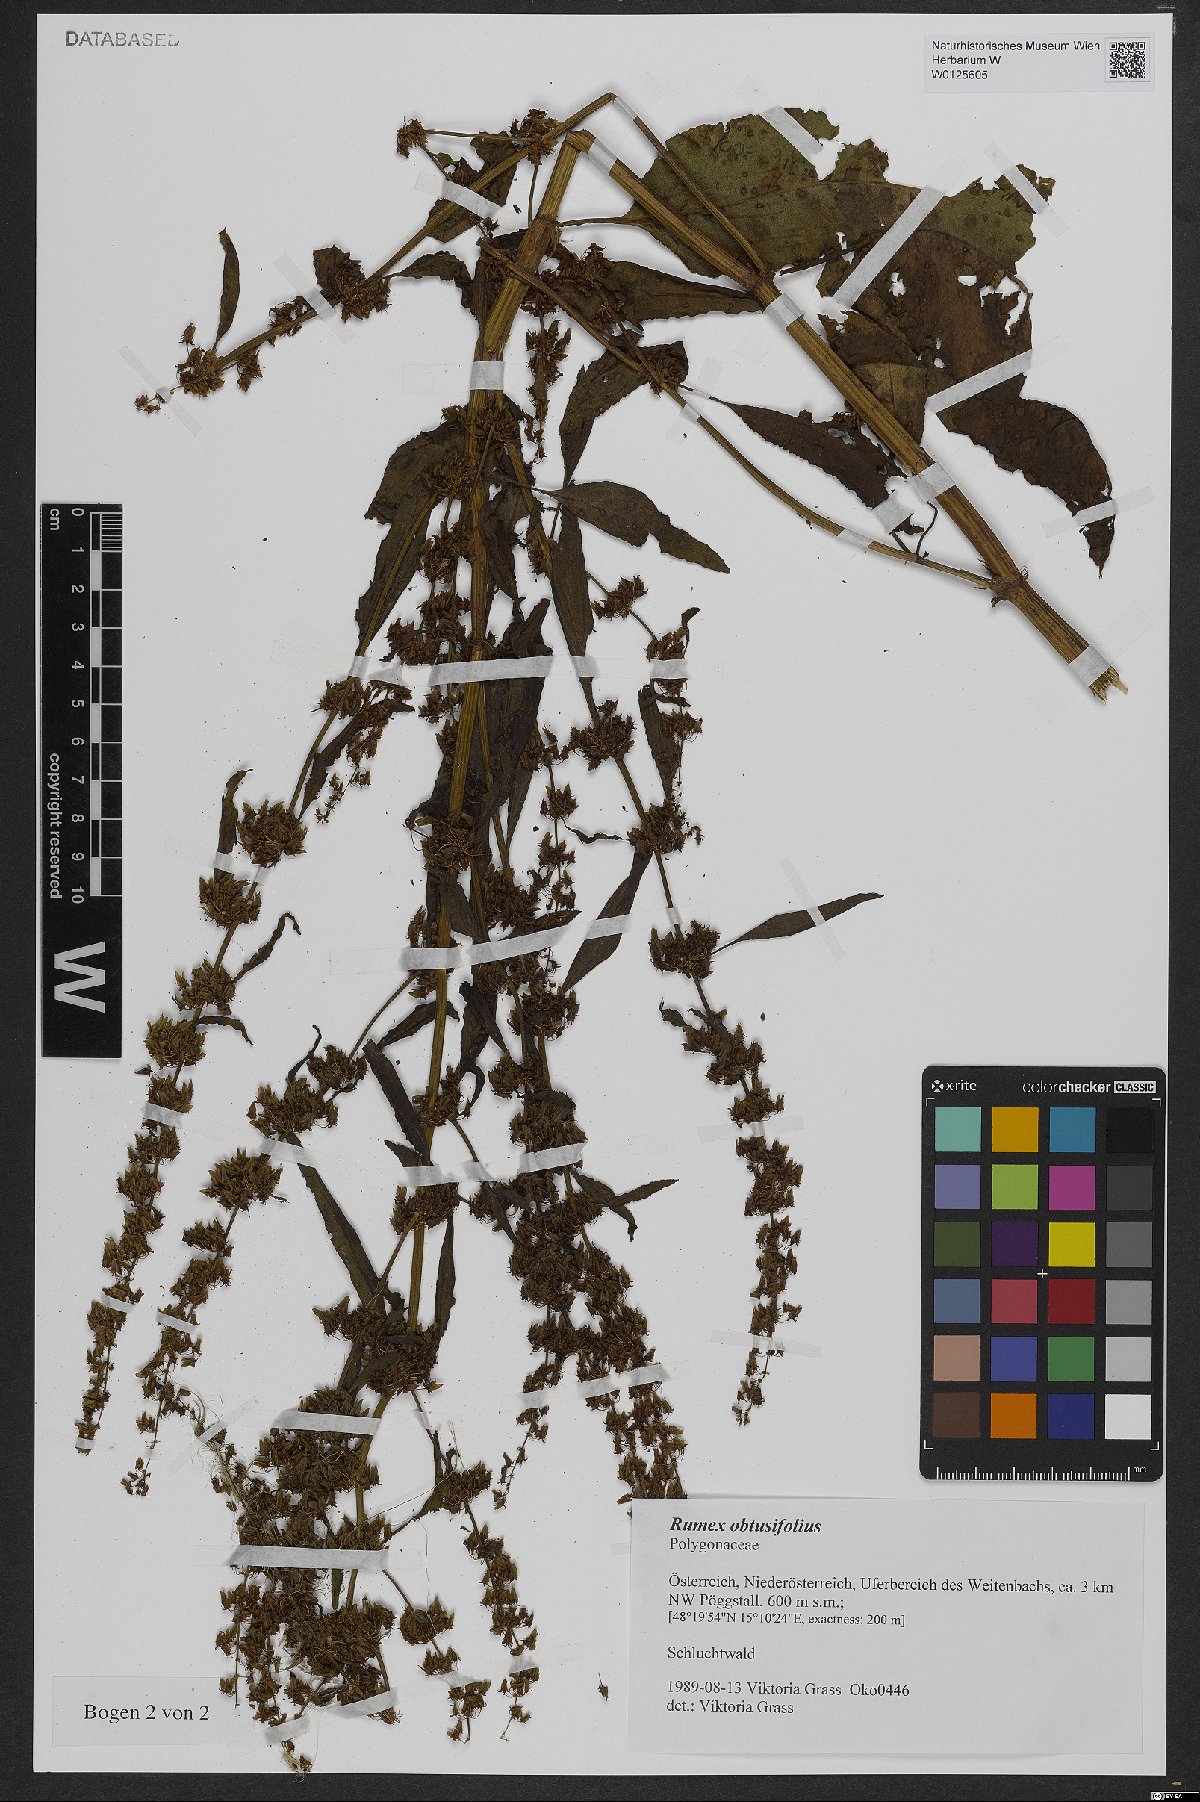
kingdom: Plantae
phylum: Tracheophyta
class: Magnoliopsida
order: Caryophyllales
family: Polygonaceae
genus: Rumex
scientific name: Rumex obtusifolius
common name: Bitter dock
